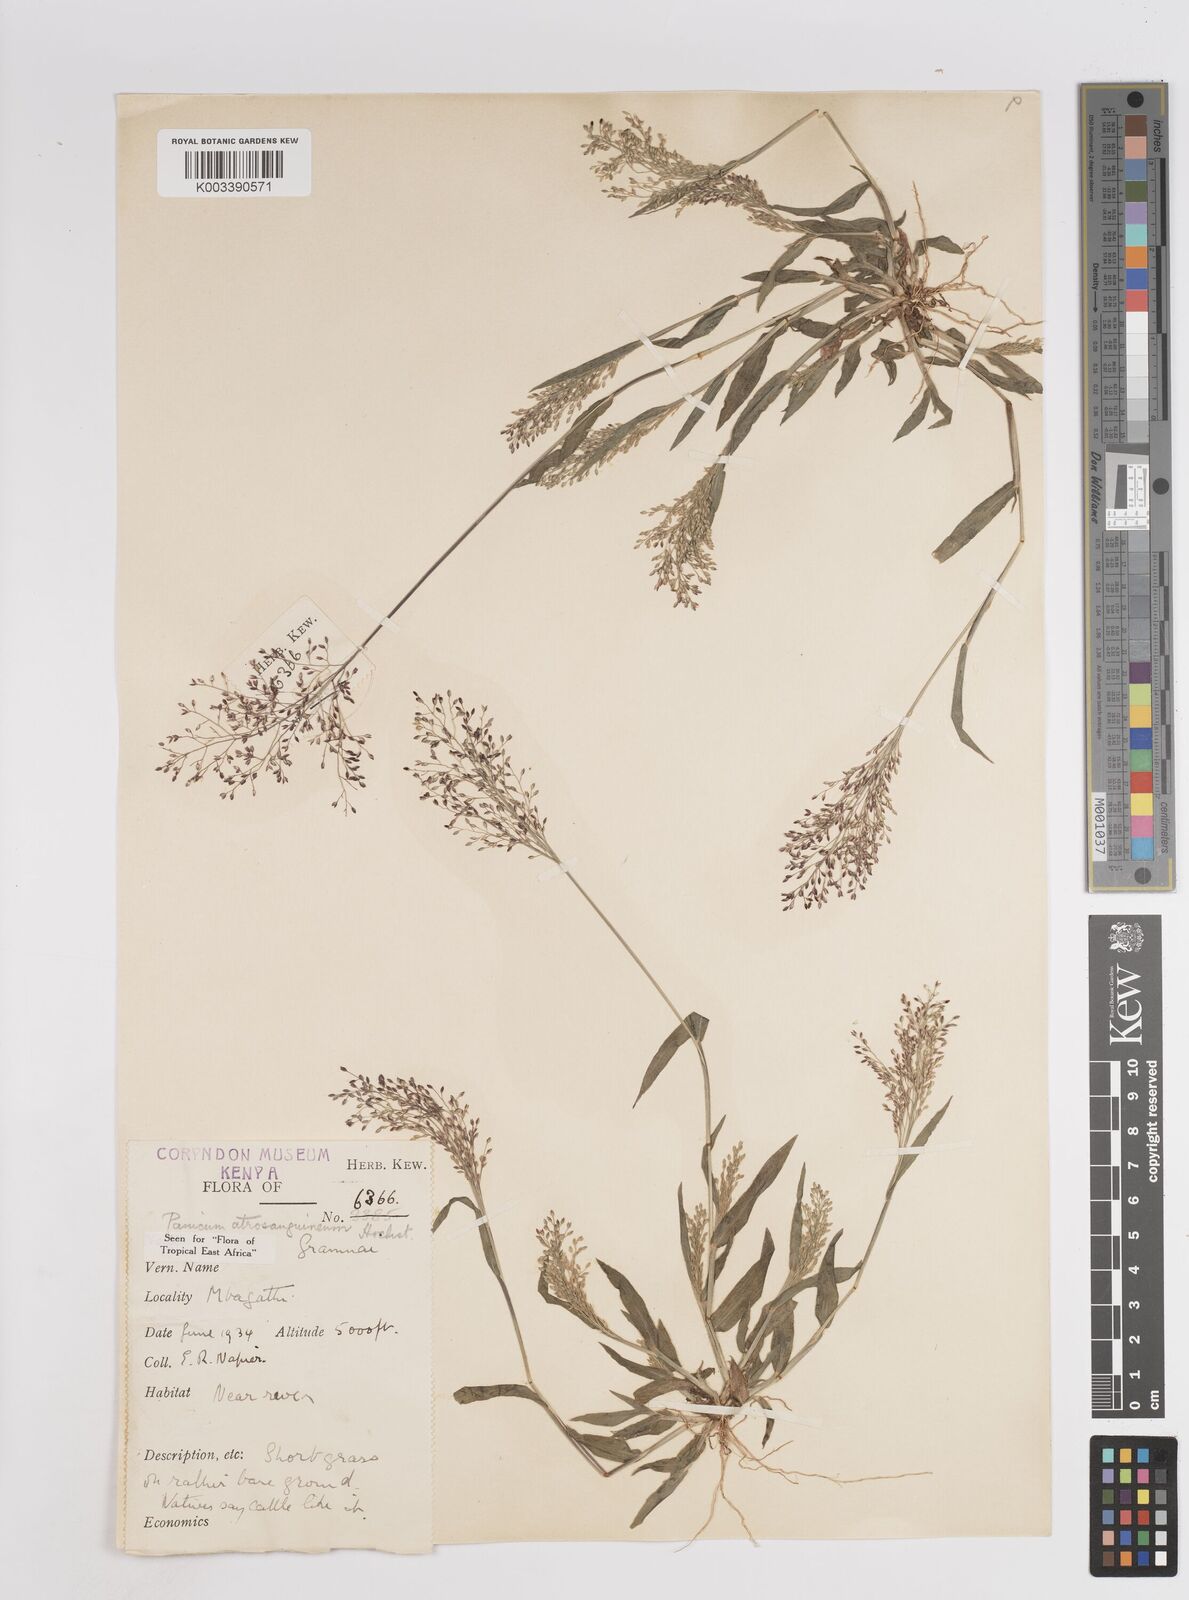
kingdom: Plantae
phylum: Tracheophyta
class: Liliopsida
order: Poales
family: Poaceae
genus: Panicum
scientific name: Panicum atrosanguineum
